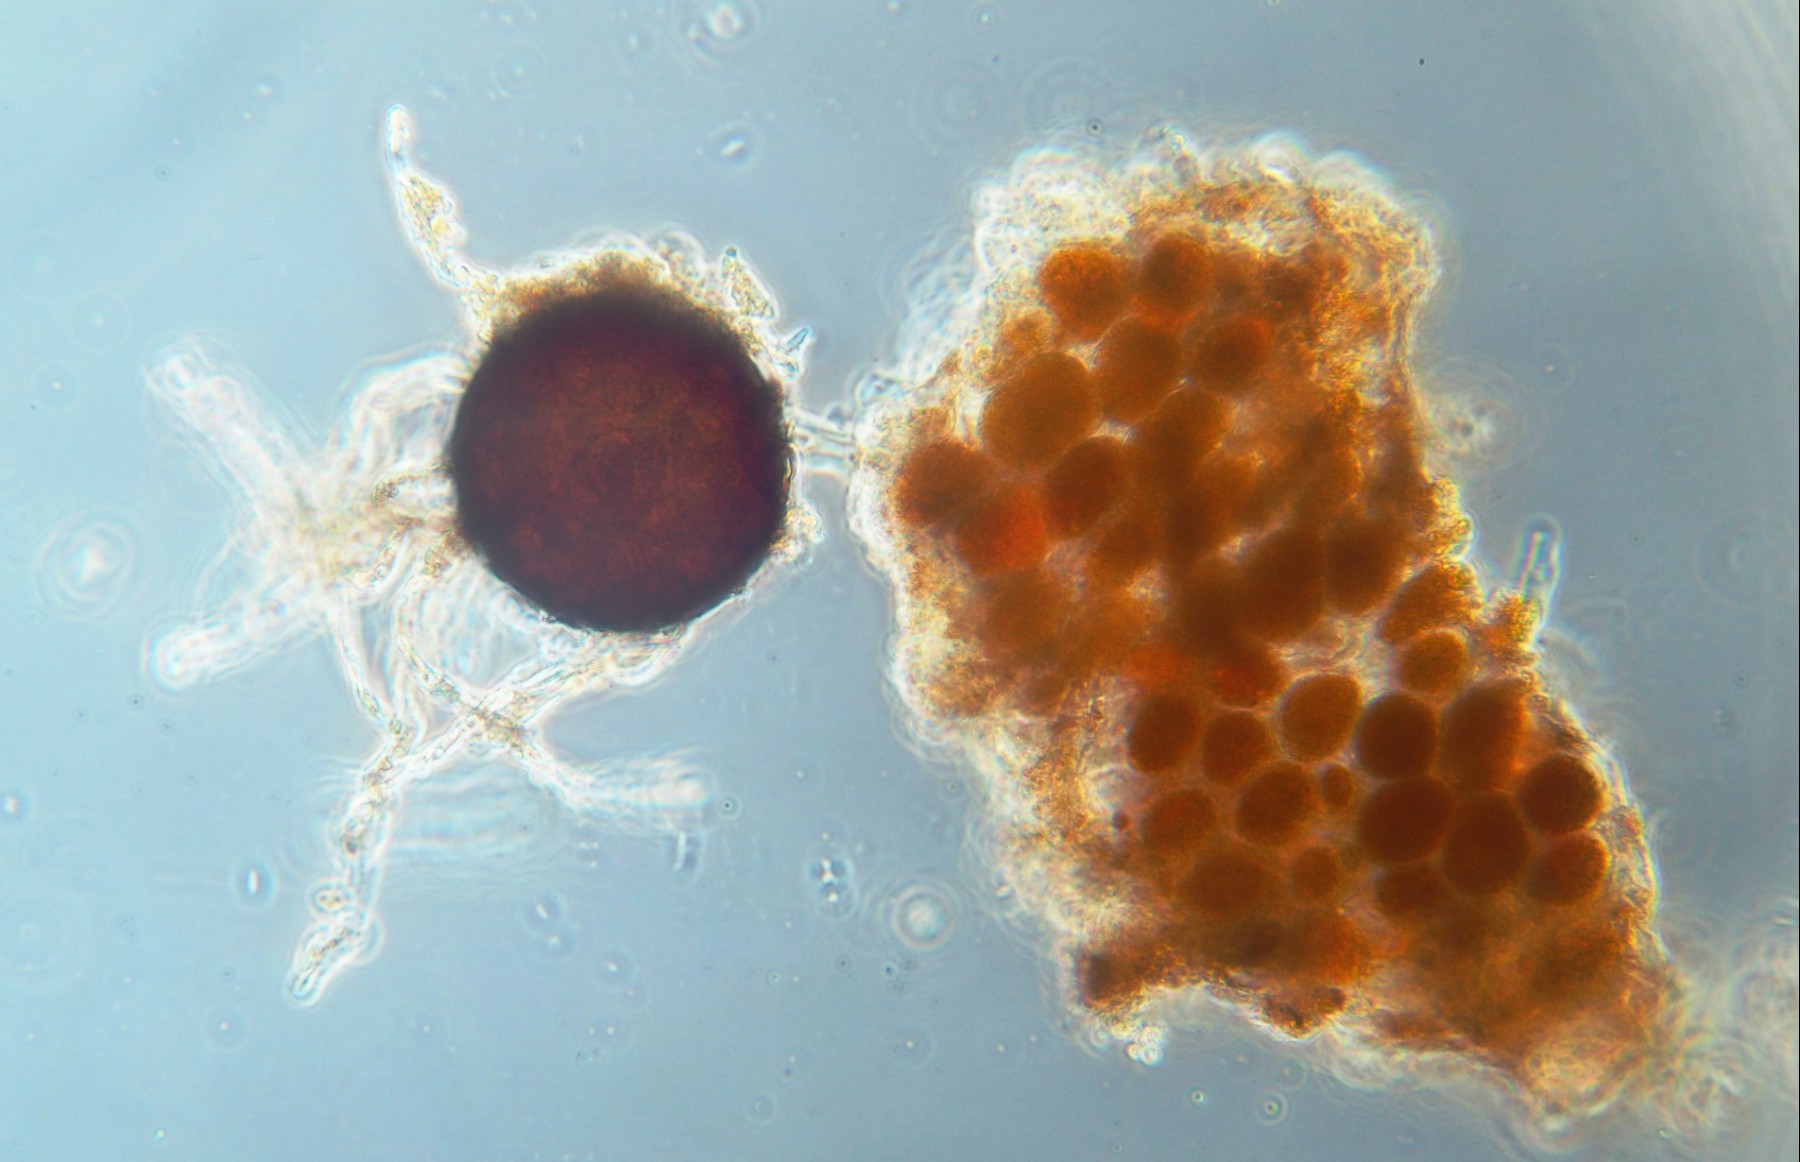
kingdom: Fungi
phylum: Basidiomycota
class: Pucciniomycetes
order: Pucciniales
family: Coleosporiaceae
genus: Coleosporium
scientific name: Coleosporium sonchi
